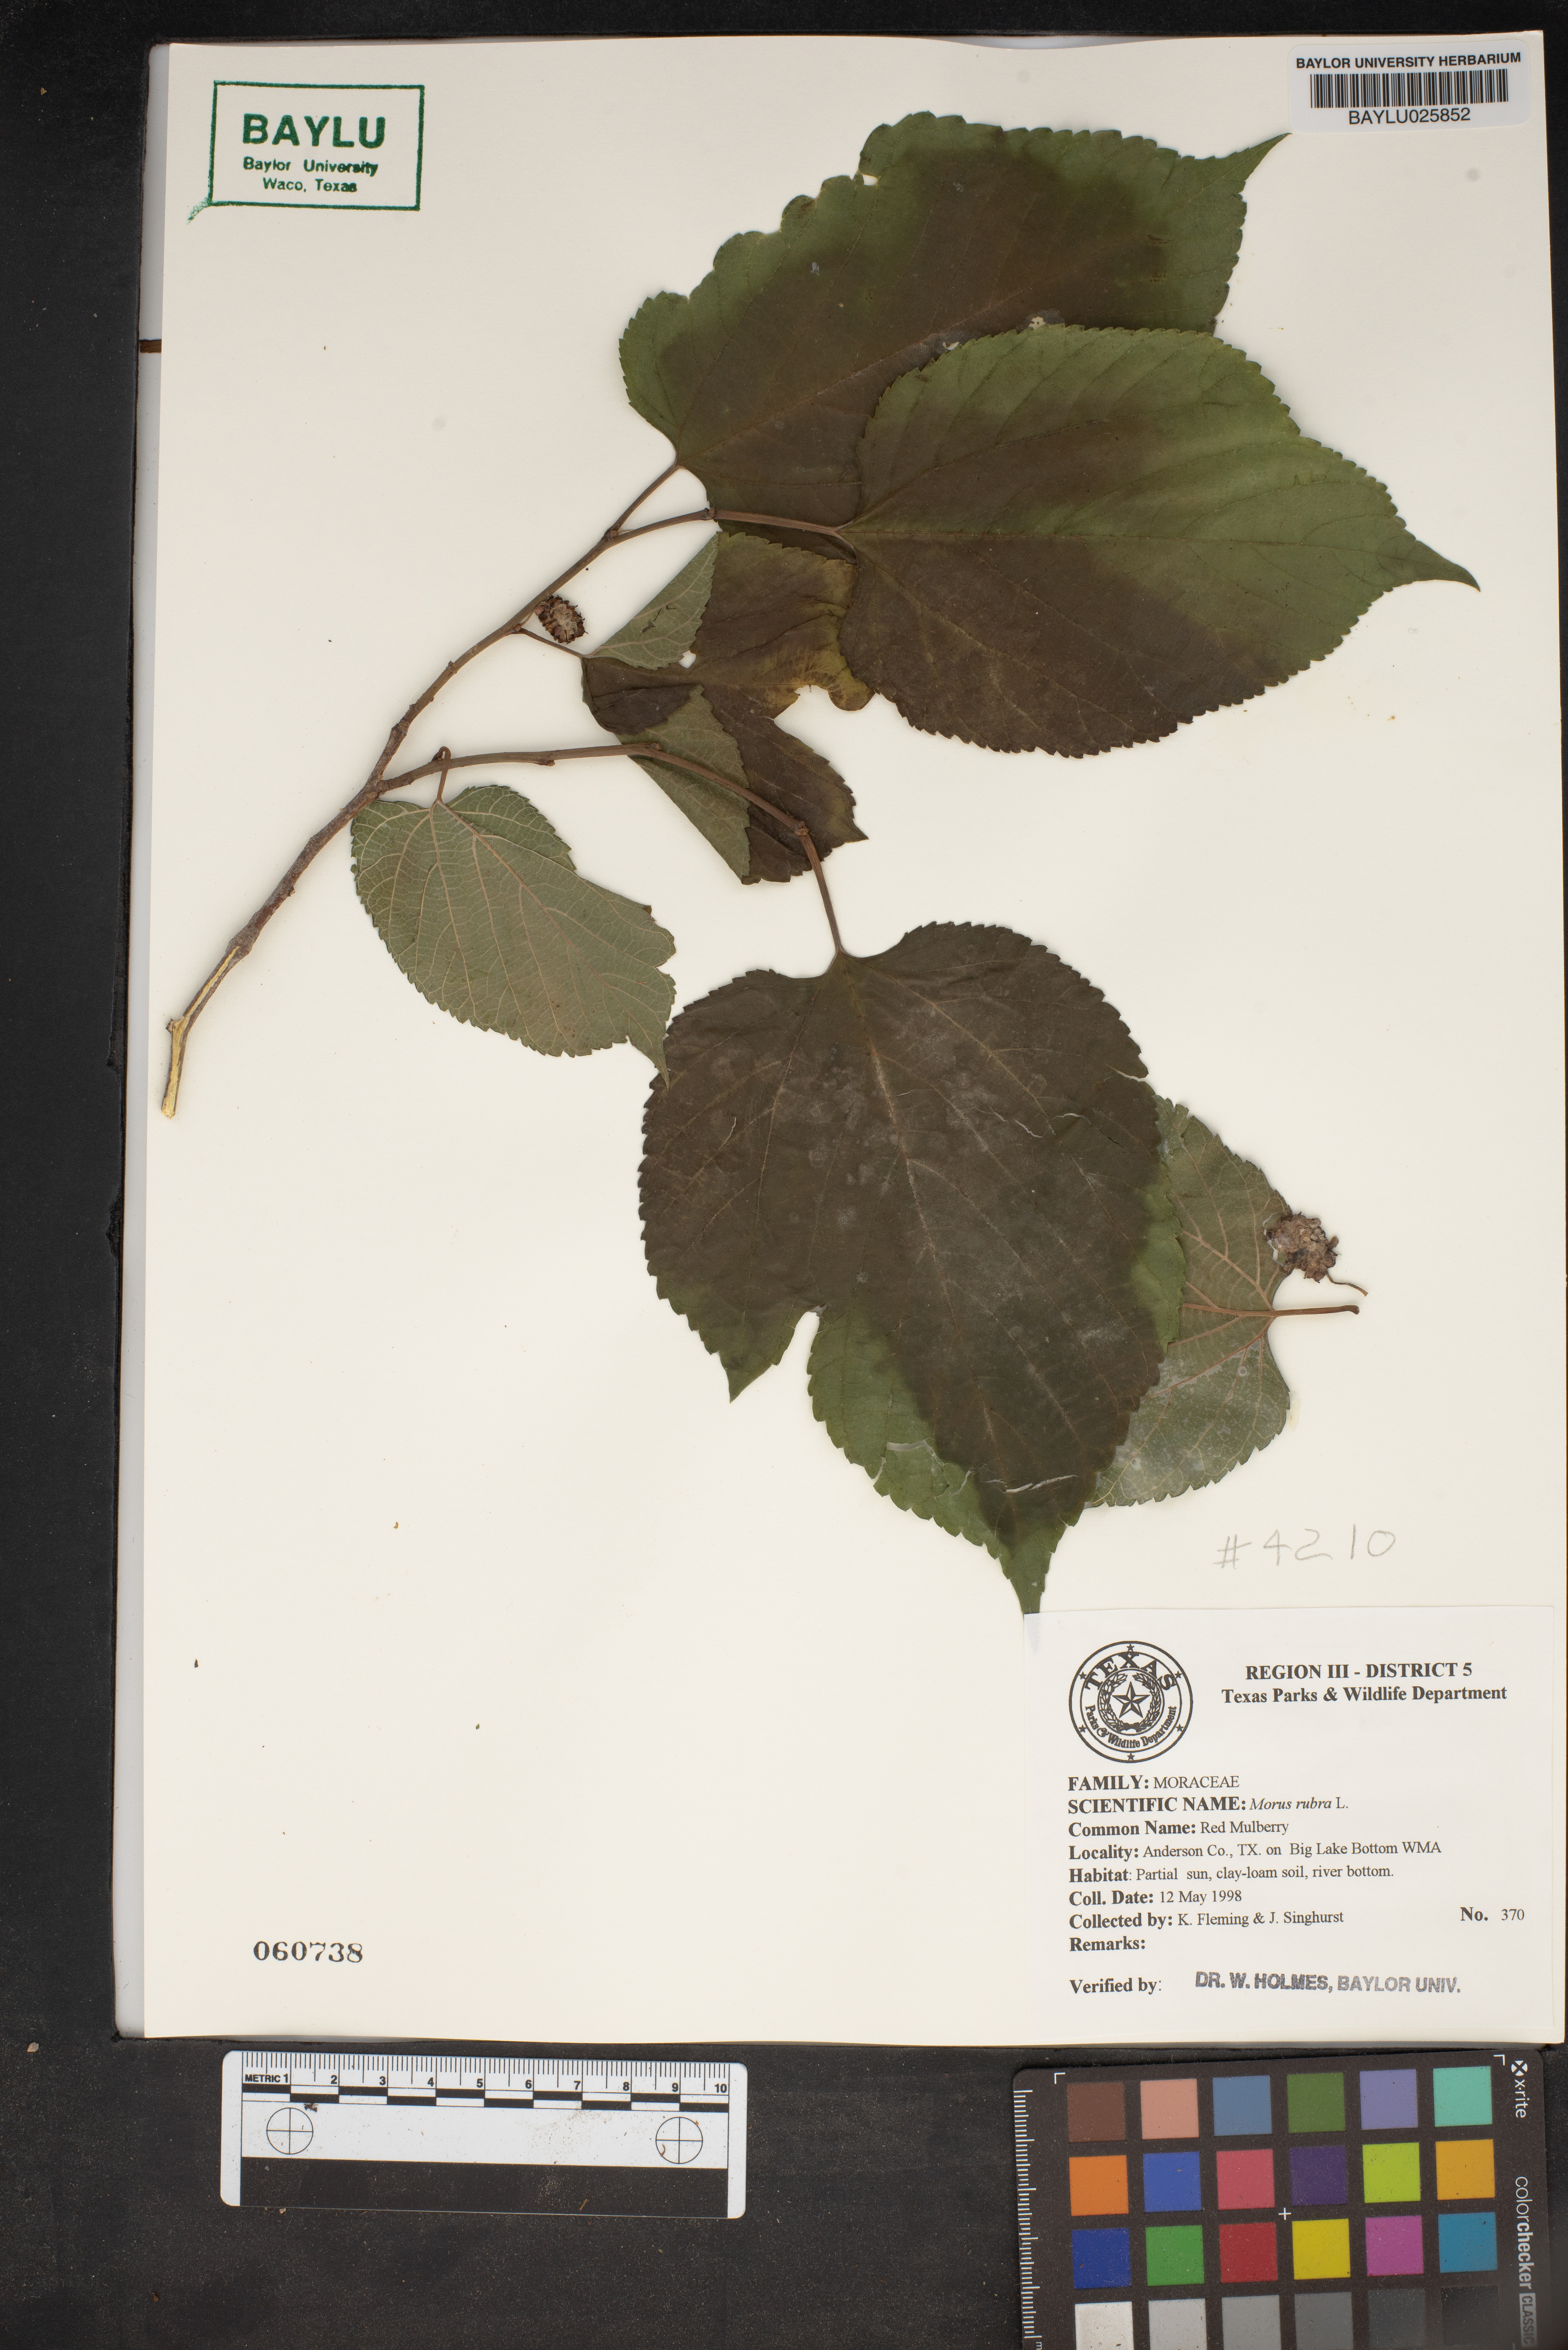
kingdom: Plantae
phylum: Tracheophyta
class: Magnoliopsida
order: Rosales
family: Moraceae
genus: Morus
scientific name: Morus rubra
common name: Red mulberry
